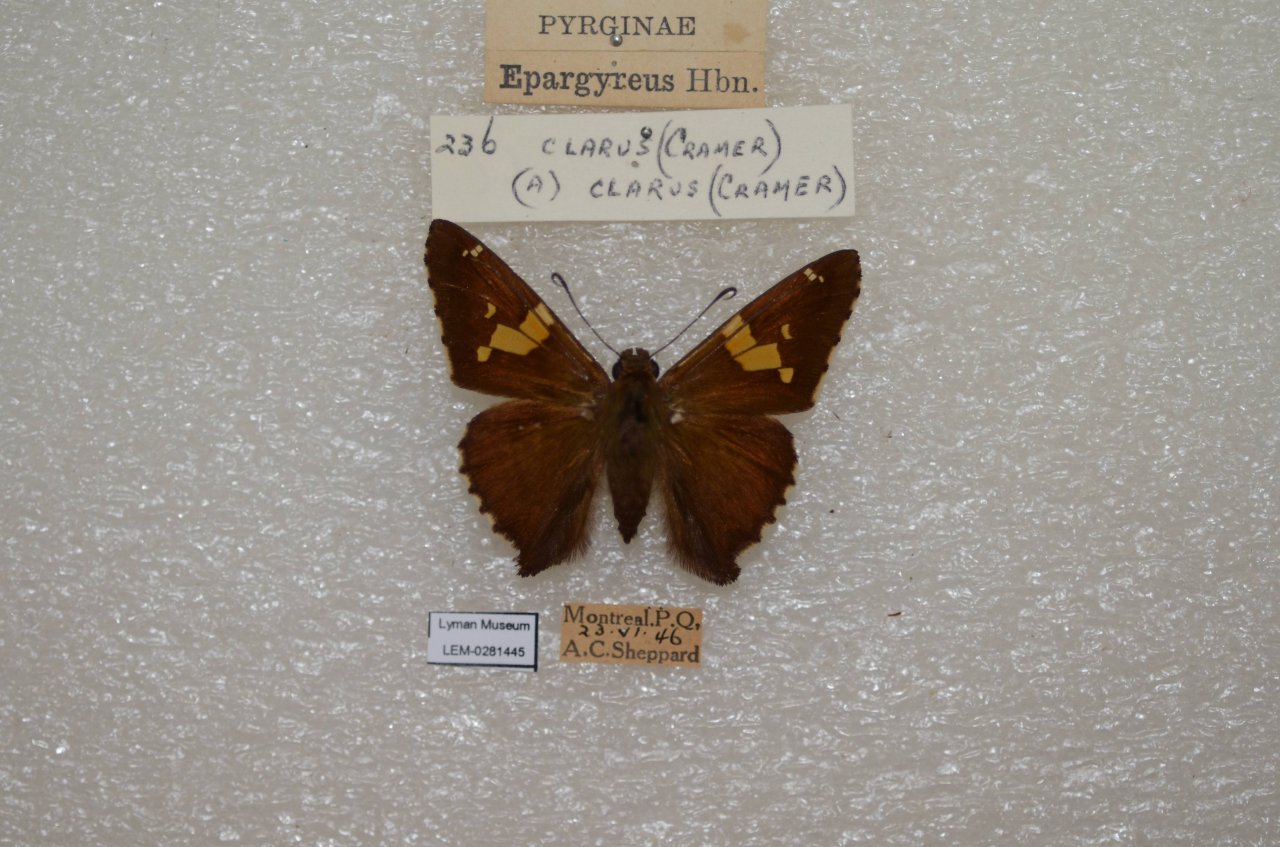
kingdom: Animalia
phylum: Arthropoda
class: Insecta
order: Lepidoptera
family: Hesperiidae
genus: Epargyreus
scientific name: Epargyreus clarus
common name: Silver-spotted Skipper
